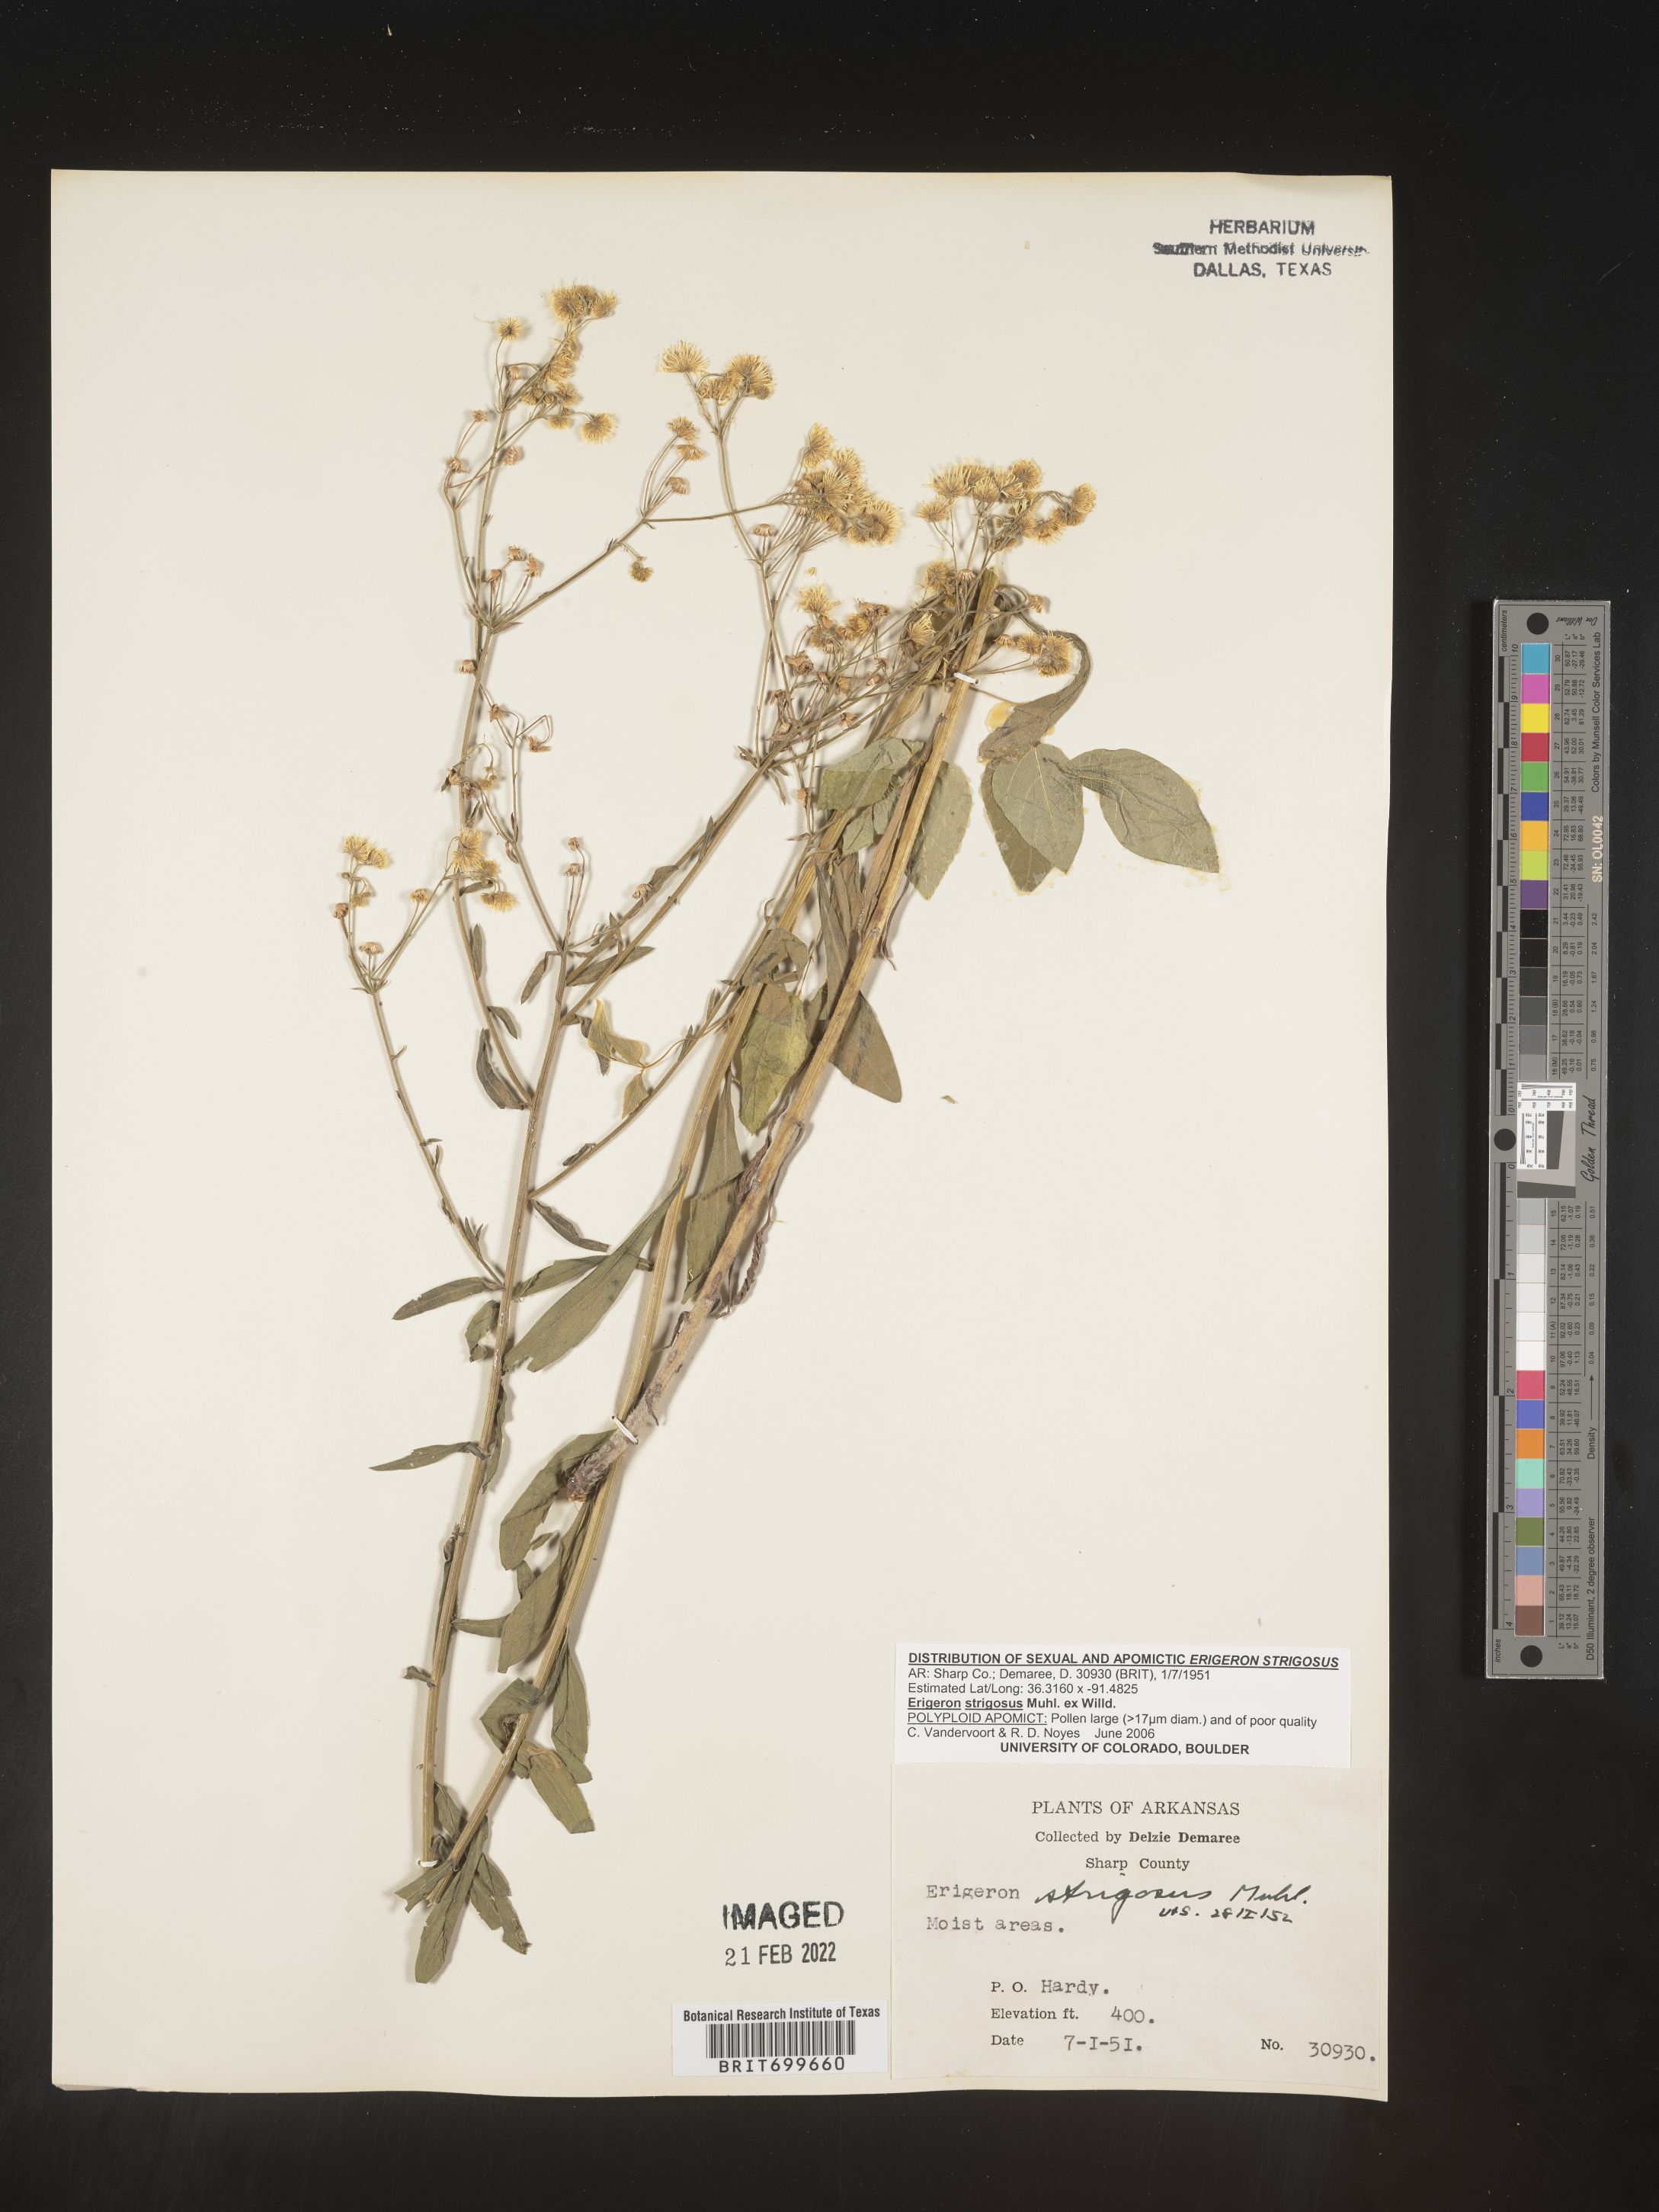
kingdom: Plantae
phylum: Tracheophyta
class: Magnoliopsida
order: Asterales
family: Asteraceae
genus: Erigeron
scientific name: Erigeron strigosus
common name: Common eastern fleabane
